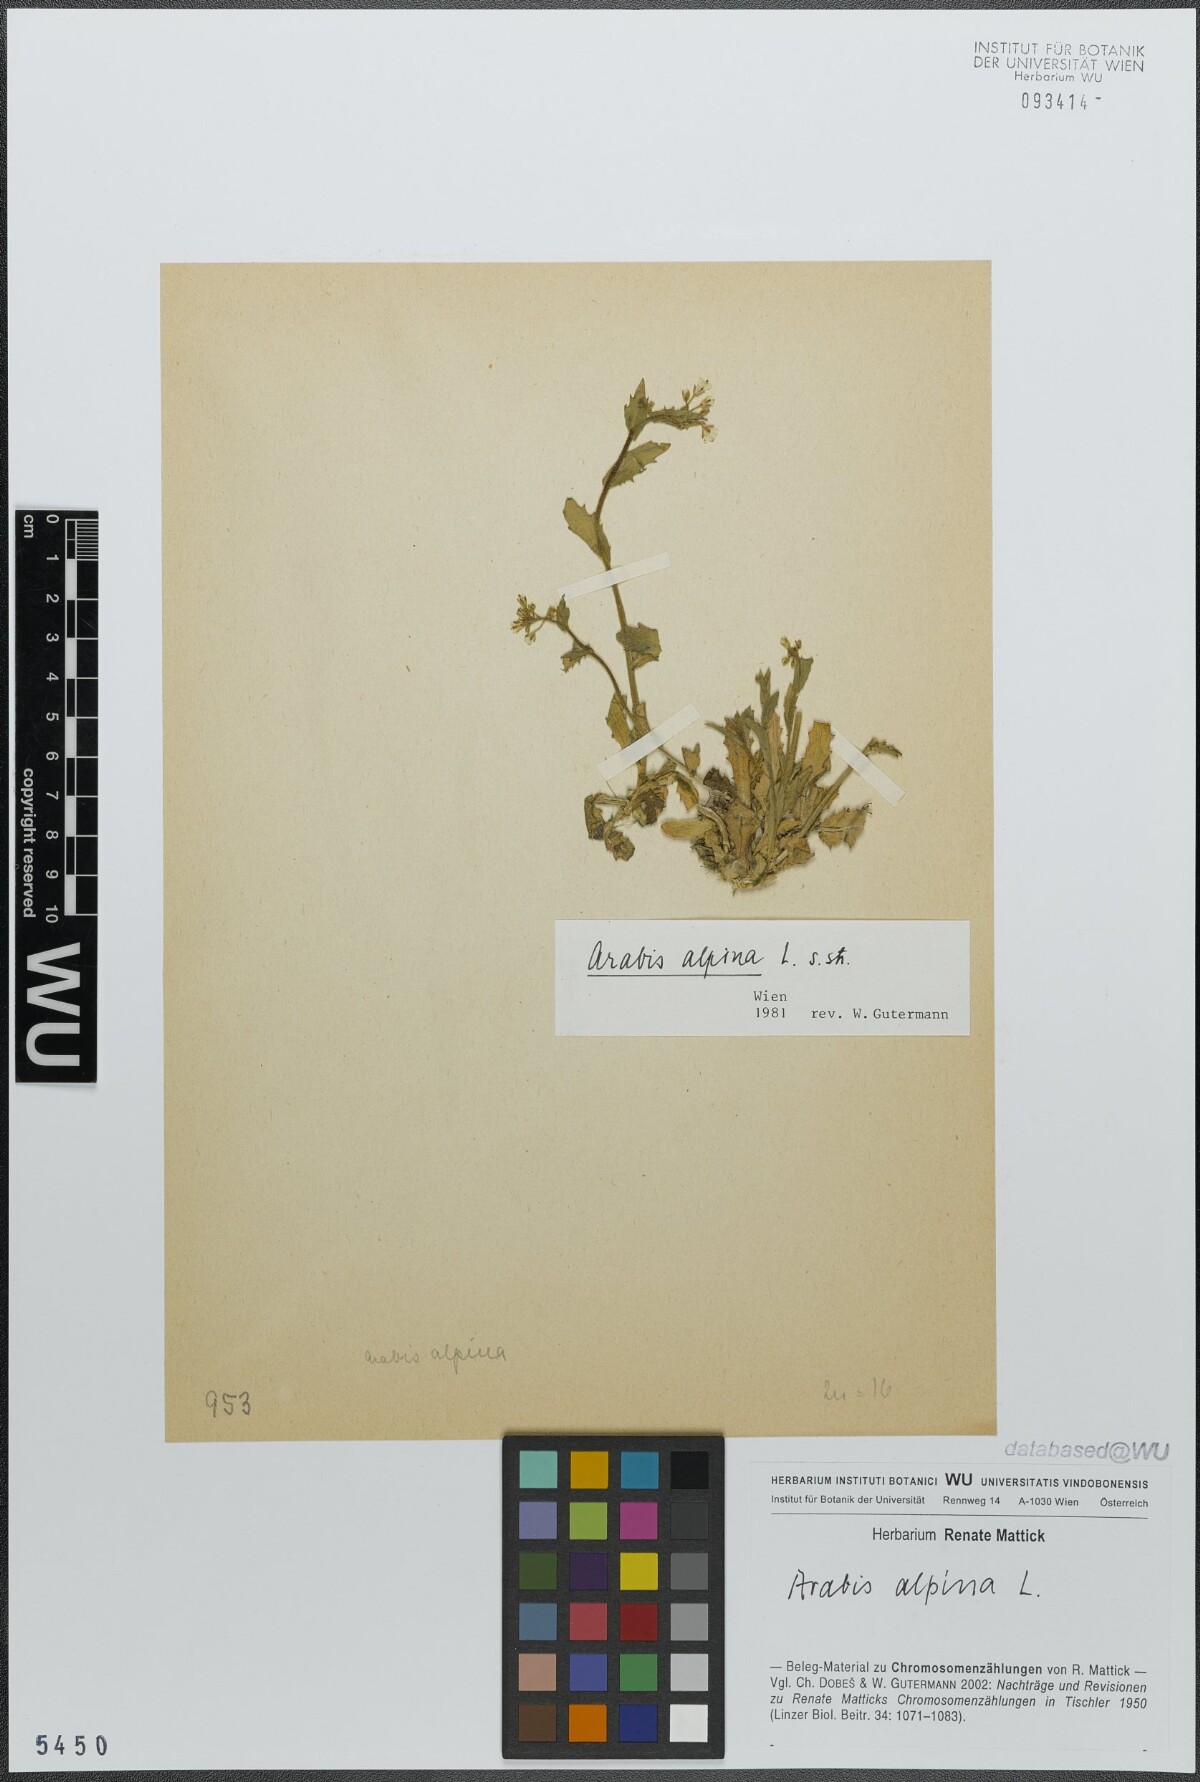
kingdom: Plantae
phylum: Tracheophyta
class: Magnoliopsida
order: Brassicales
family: Brassicaceae
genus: Arabis
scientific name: Arabis alpina
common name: Alpine rock-cress
